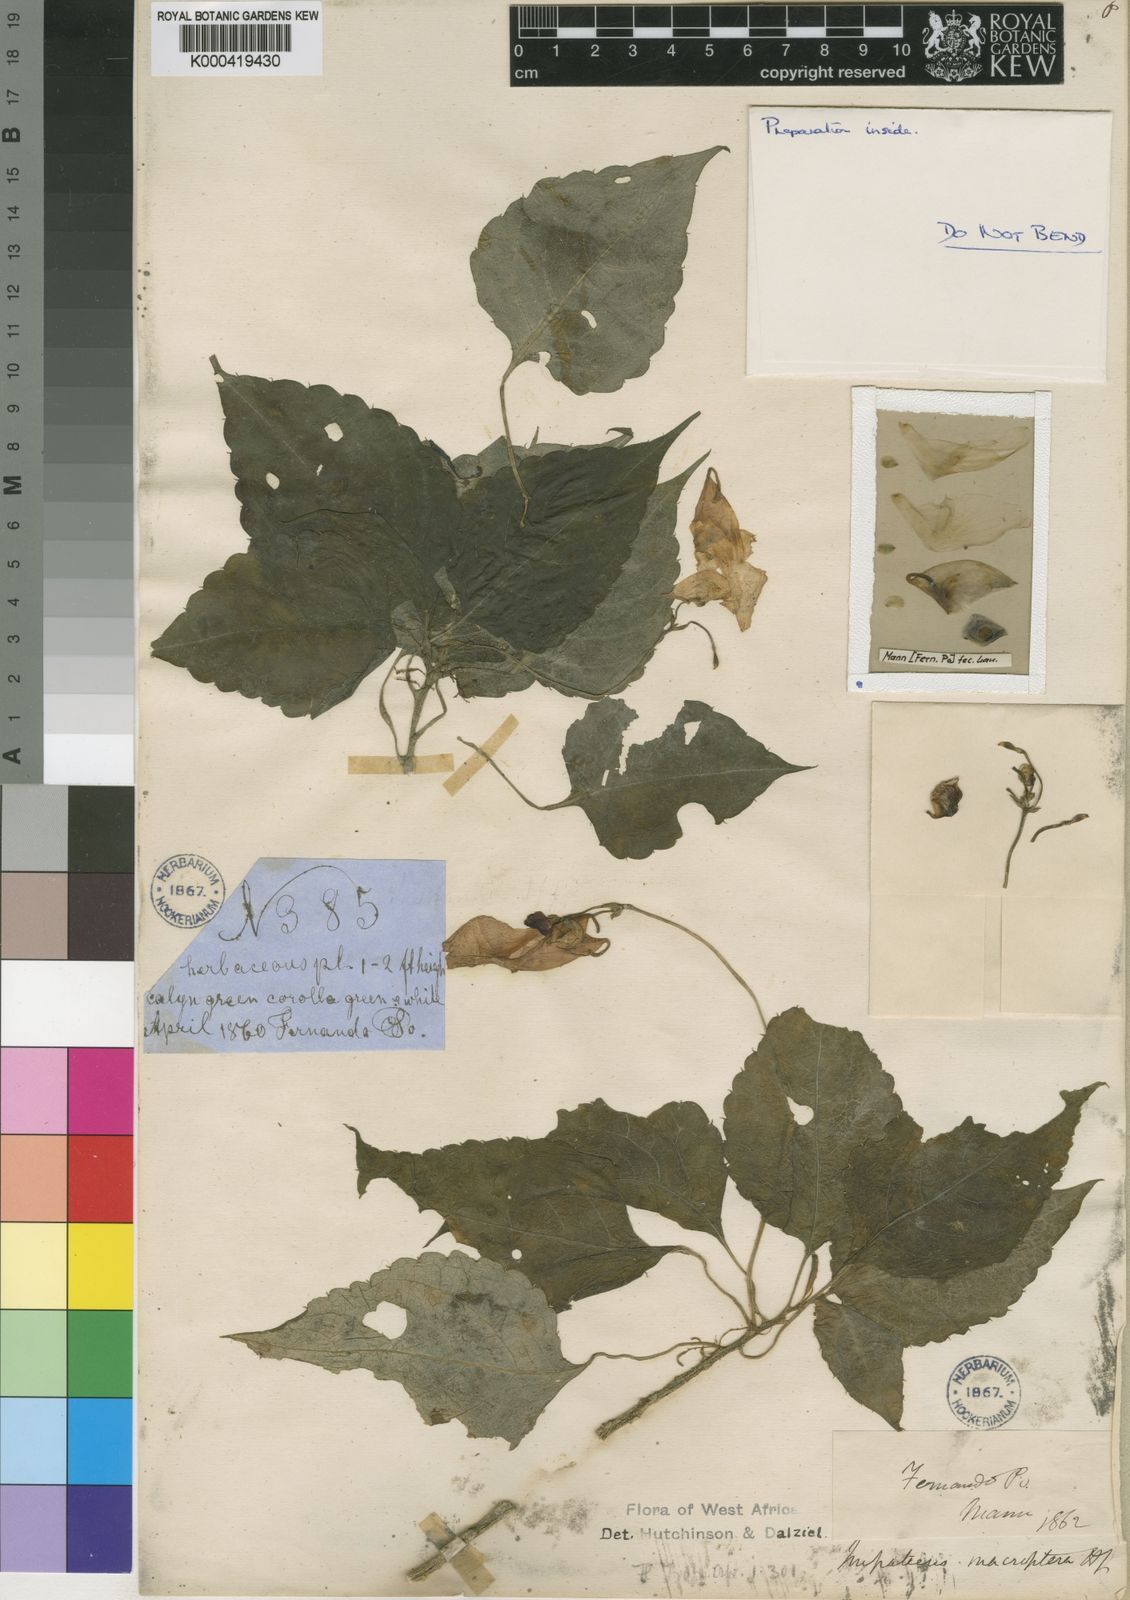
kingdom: Plantae
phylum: Tracheophyta
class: Magnoliopsida
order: Ericales
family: Balsaminaceae
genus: Impatiens
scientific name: Impatiens macroptera
